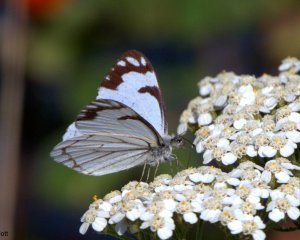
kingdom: Animalia
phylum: Arthropoda
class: Insecta
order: Lepidoptera
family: Pieridae
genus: Neophasia
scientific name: Neophasia menapia
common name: Pine White
